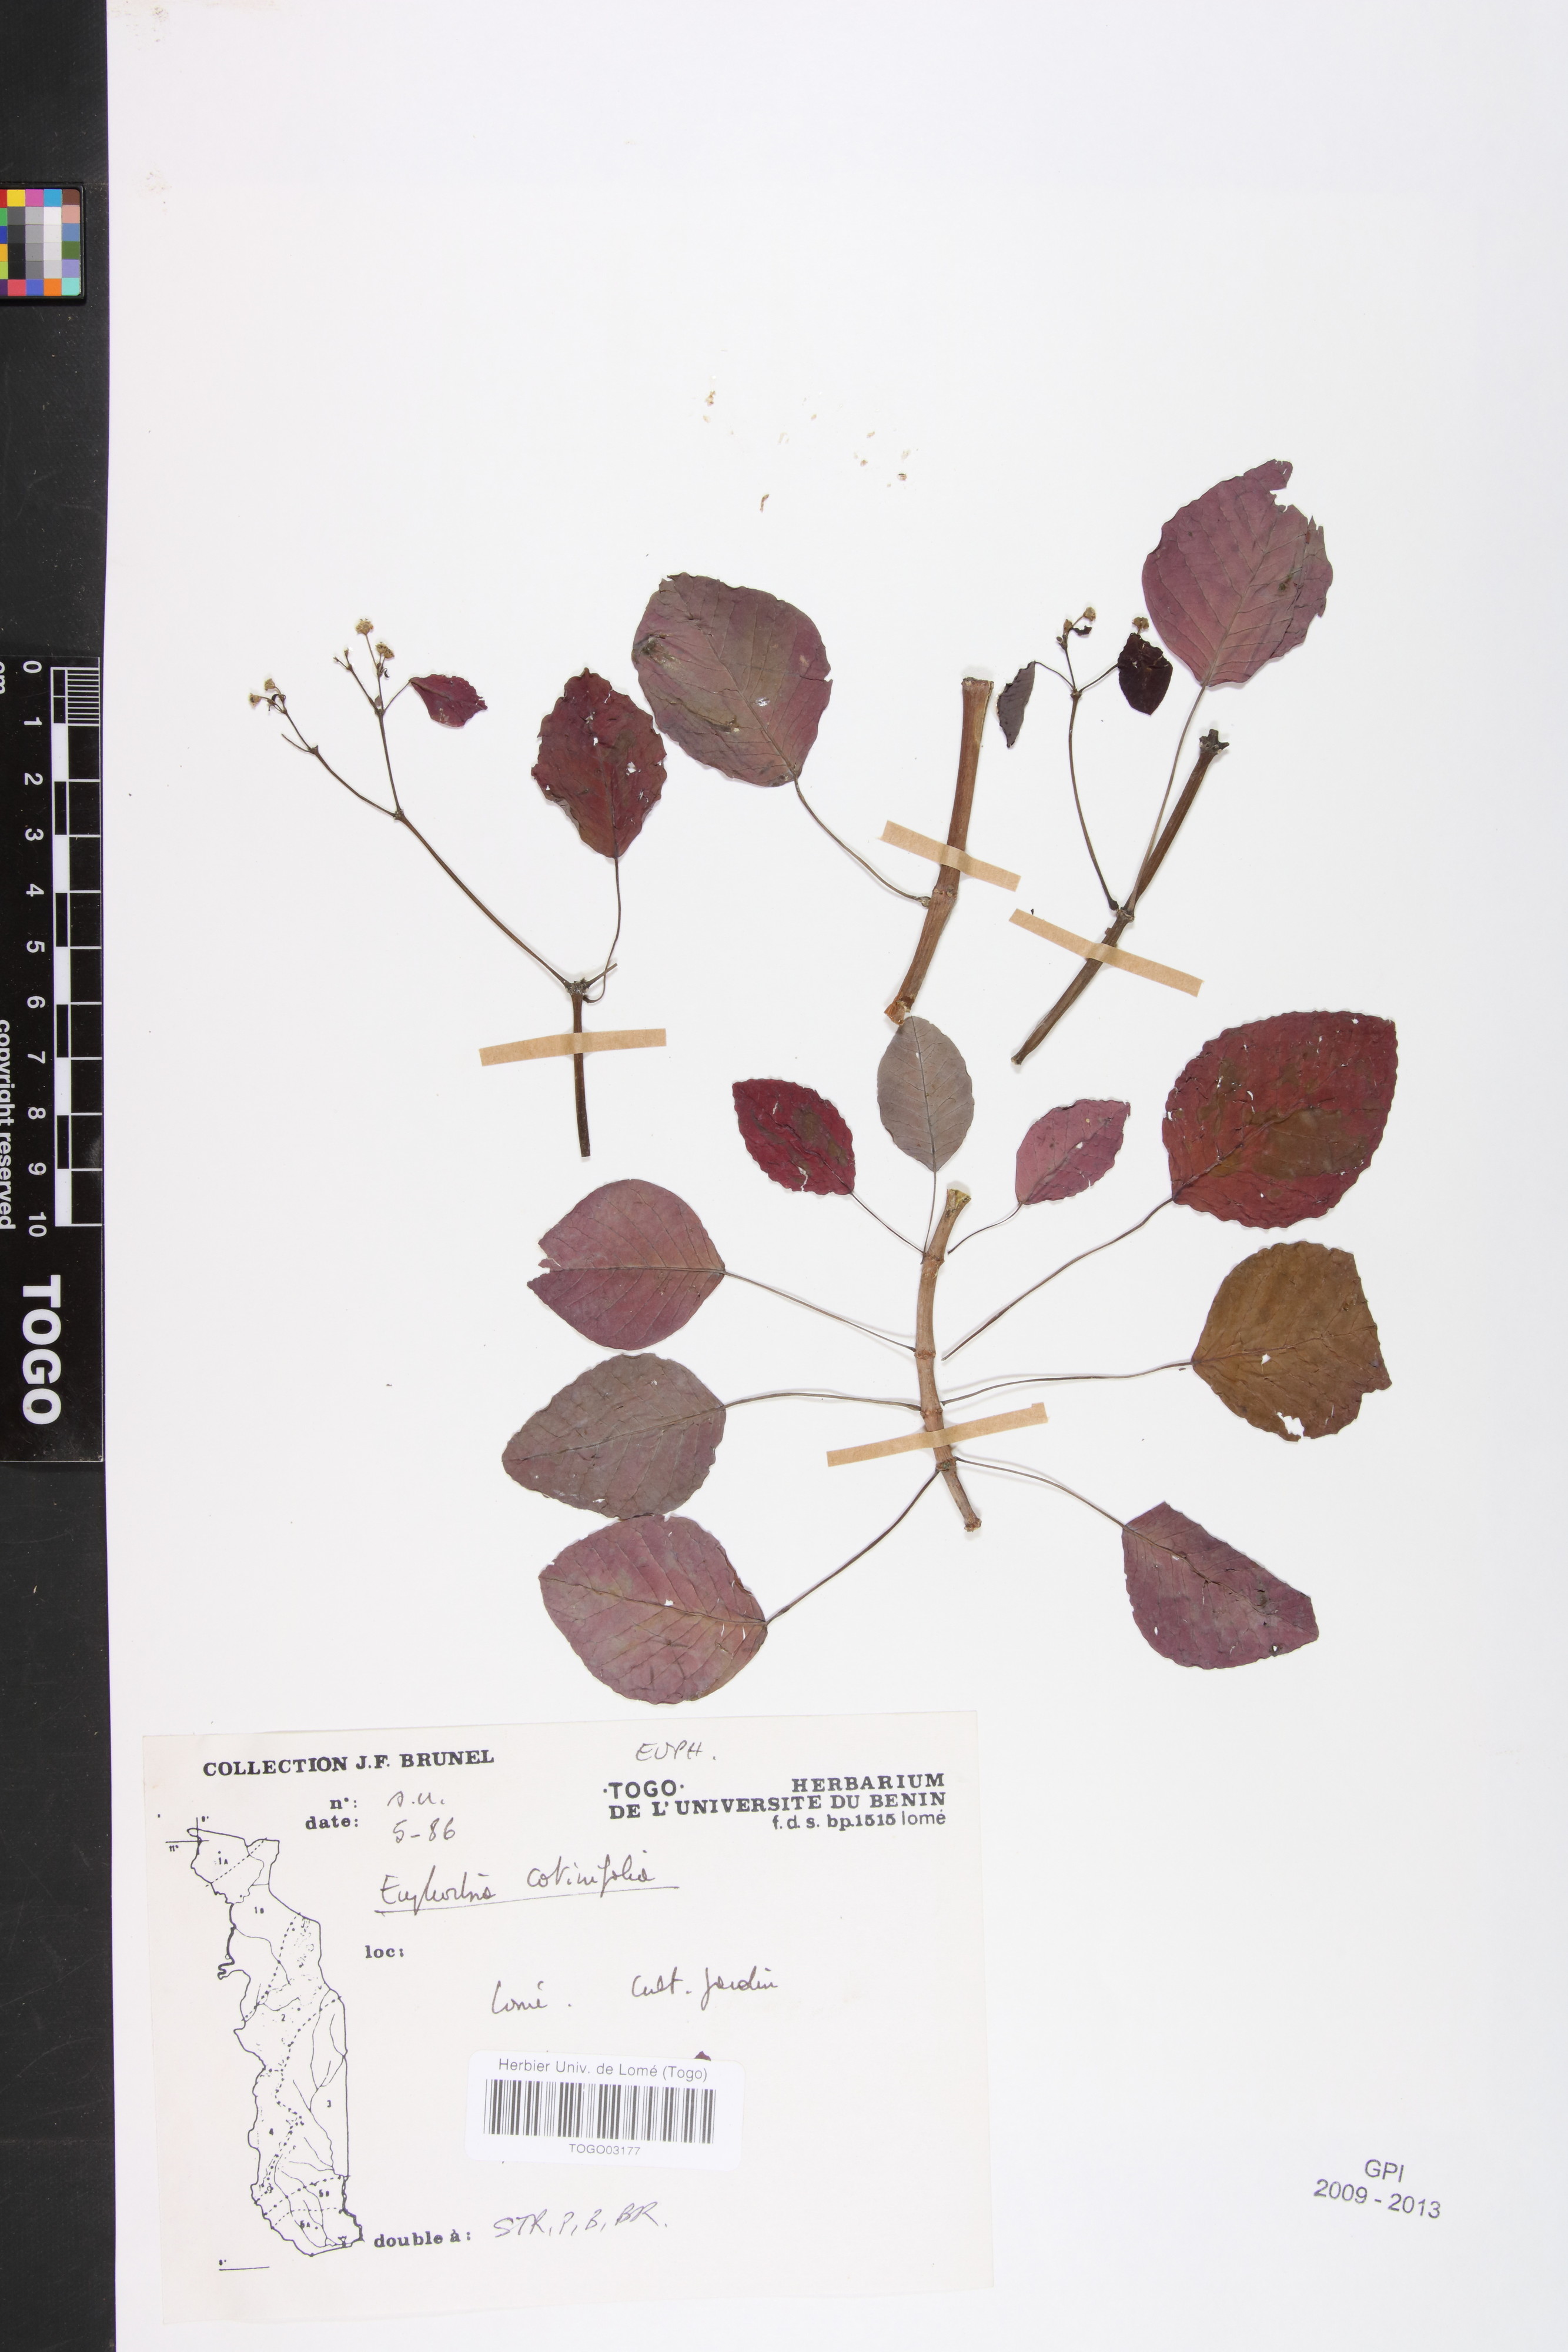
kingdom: Plantae
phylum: Tracheophyta
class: Magnoliopsida
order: Malpighiales
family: Euphorbiaceae
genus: Euphorbia
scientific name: Euphorbia cotinifolia
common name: Tropical smokebush
